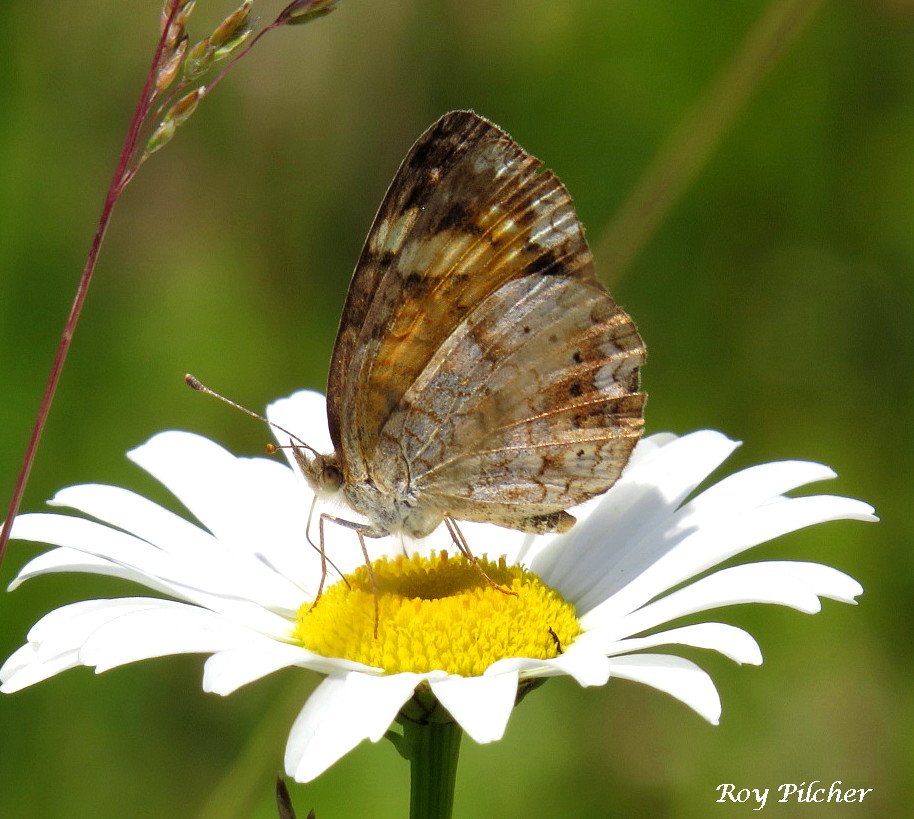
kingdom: Animalia
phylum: Arthropoda
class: Insecta
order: Lepidoptera
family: Nymphalidae
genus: Phyciodes
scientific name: Phyciodes tharos
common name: Pearl Crescent
